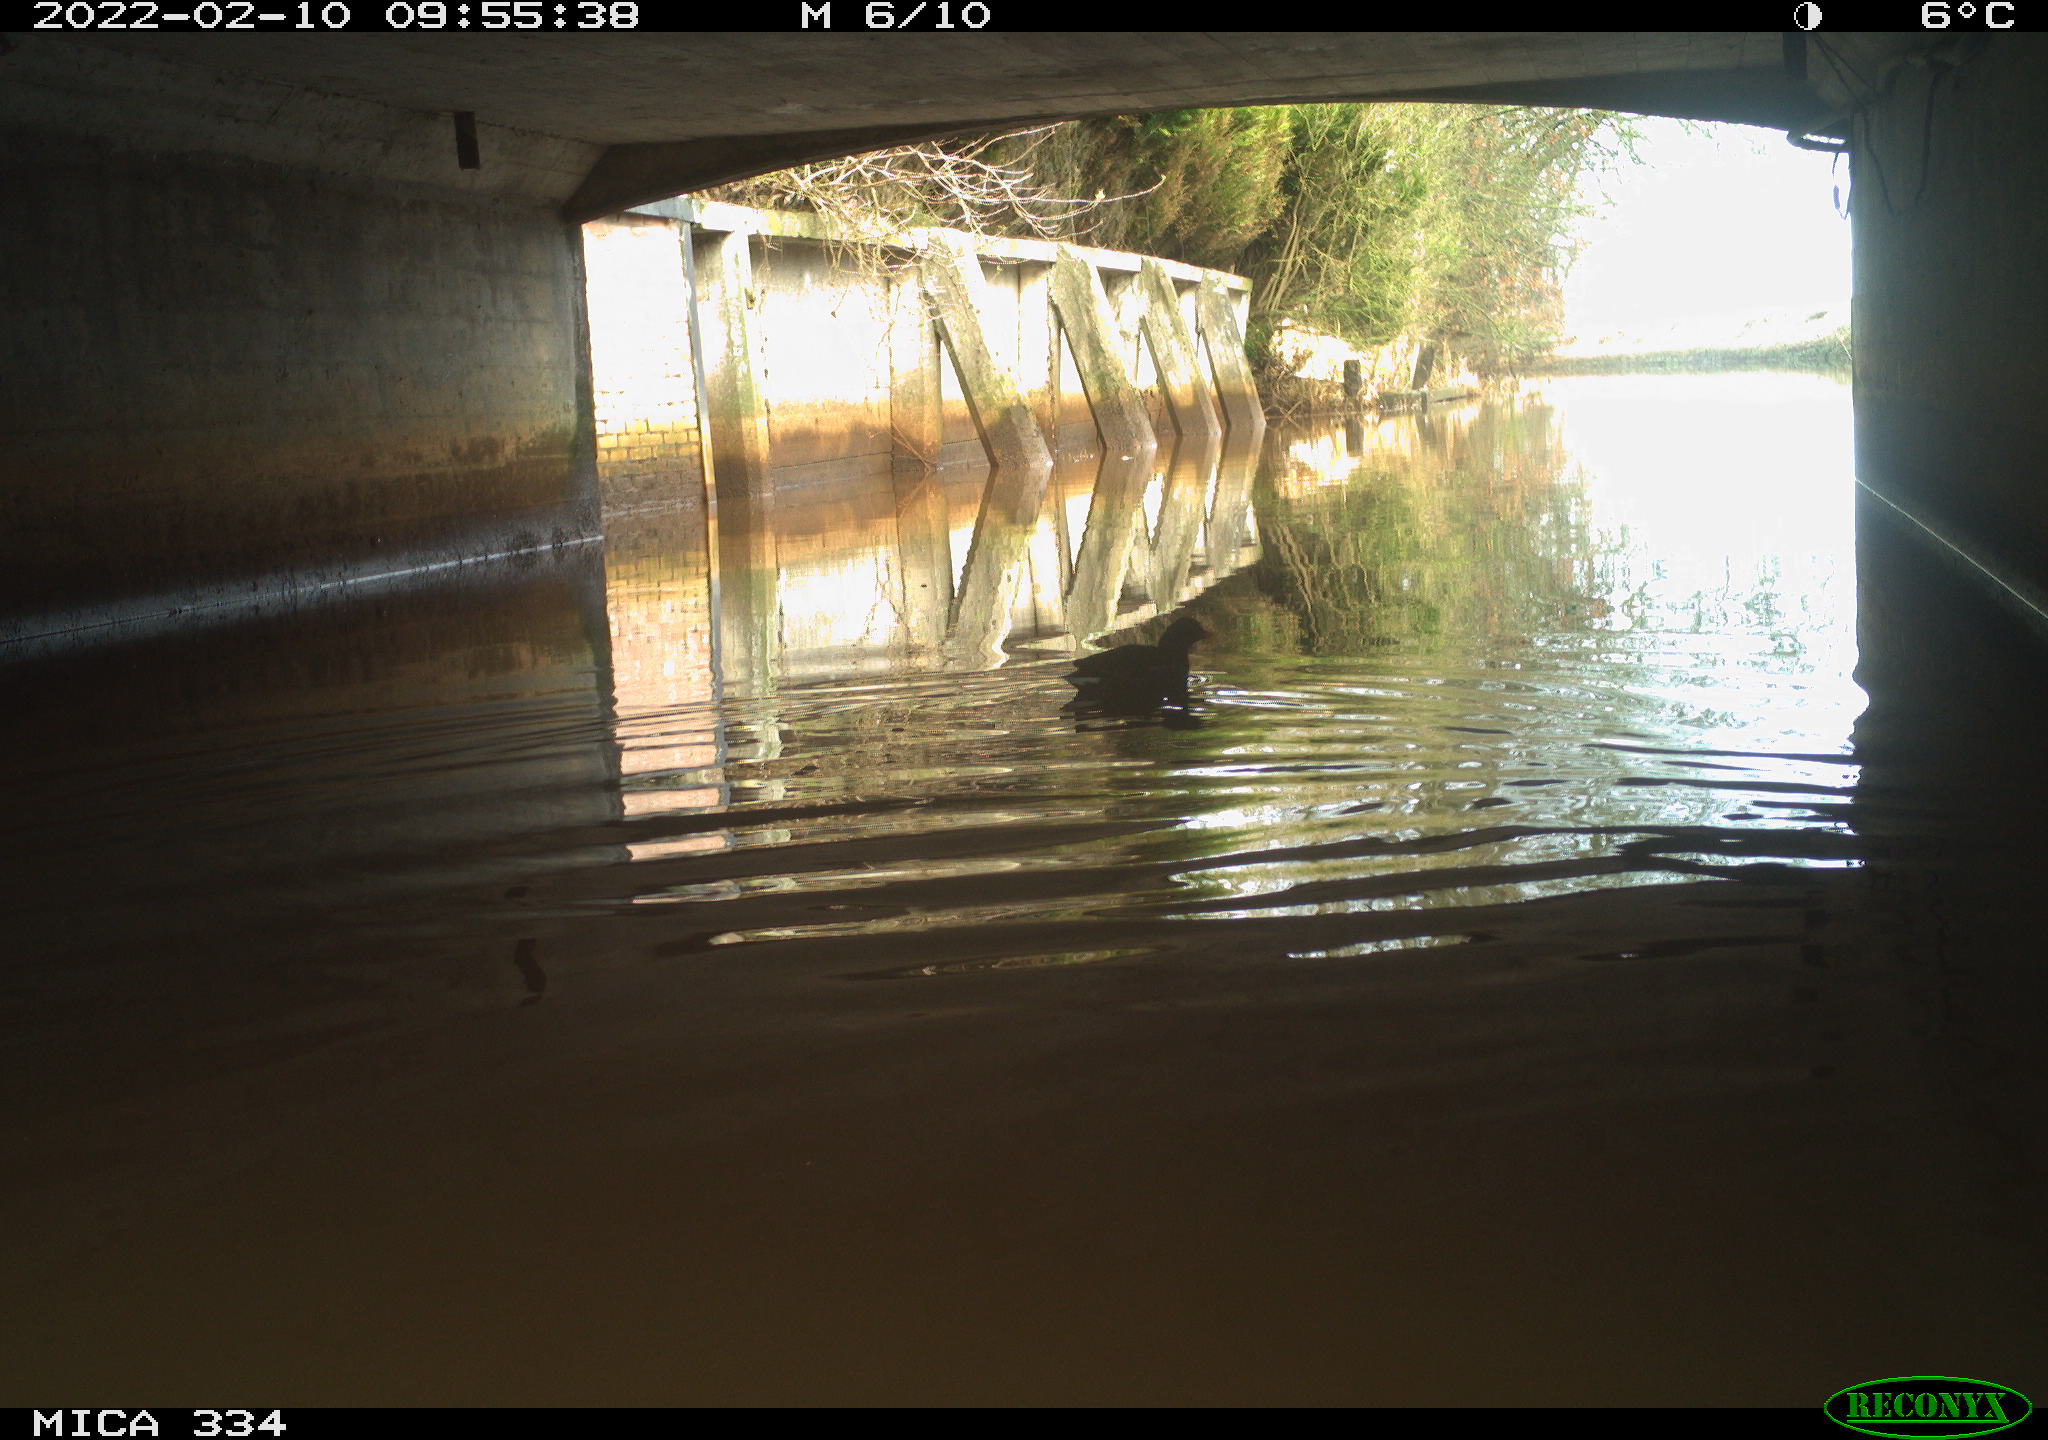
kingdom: Animalia
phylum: Chordata
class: Aves
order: Gruiformes
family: Rallidae
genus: Gallinula
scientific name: Gallinula chloropus
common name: Common moorhen
